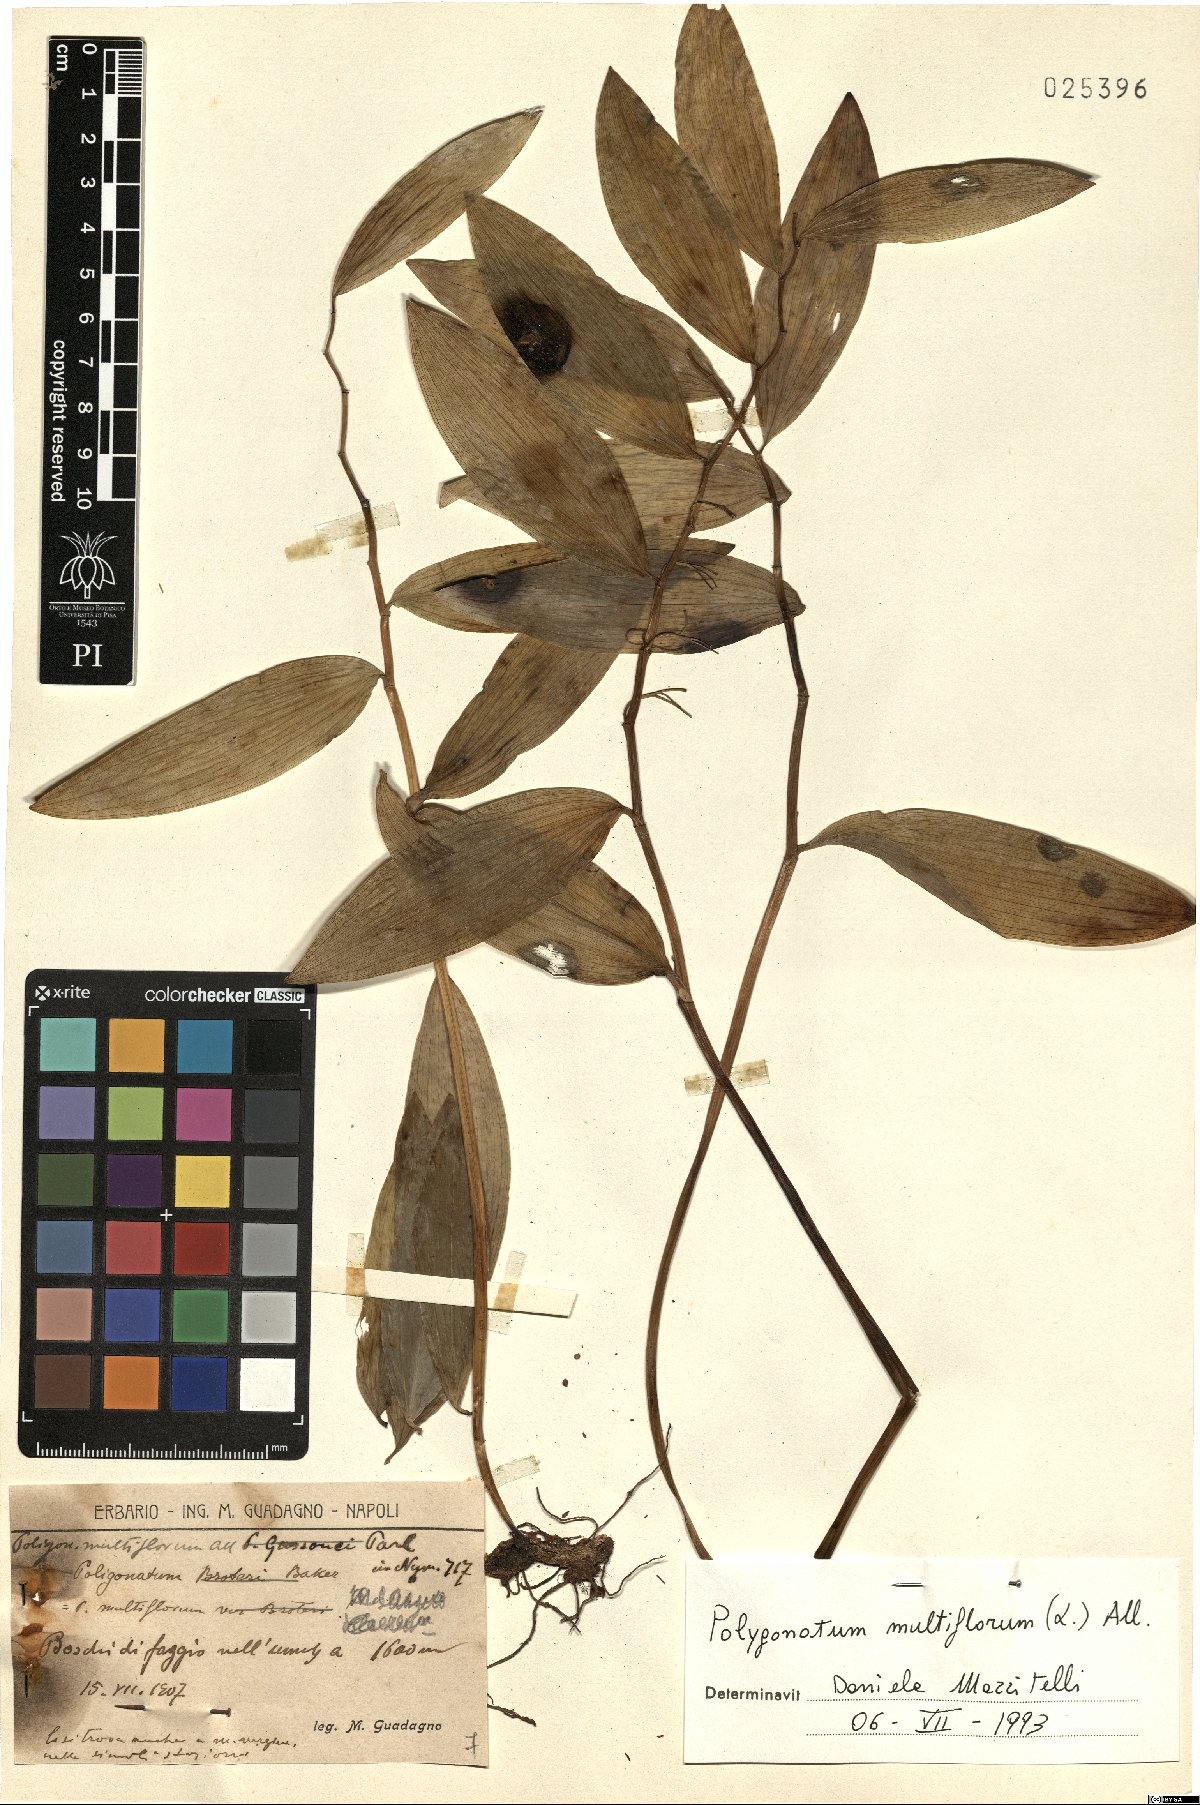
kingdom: Plantae
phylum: Tracheophyta
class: Liliopsida
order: Asparagales
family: Asparagaceae
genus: Polygonatum
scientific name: Polygonatum multiflorum
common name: Solomon's-seal
